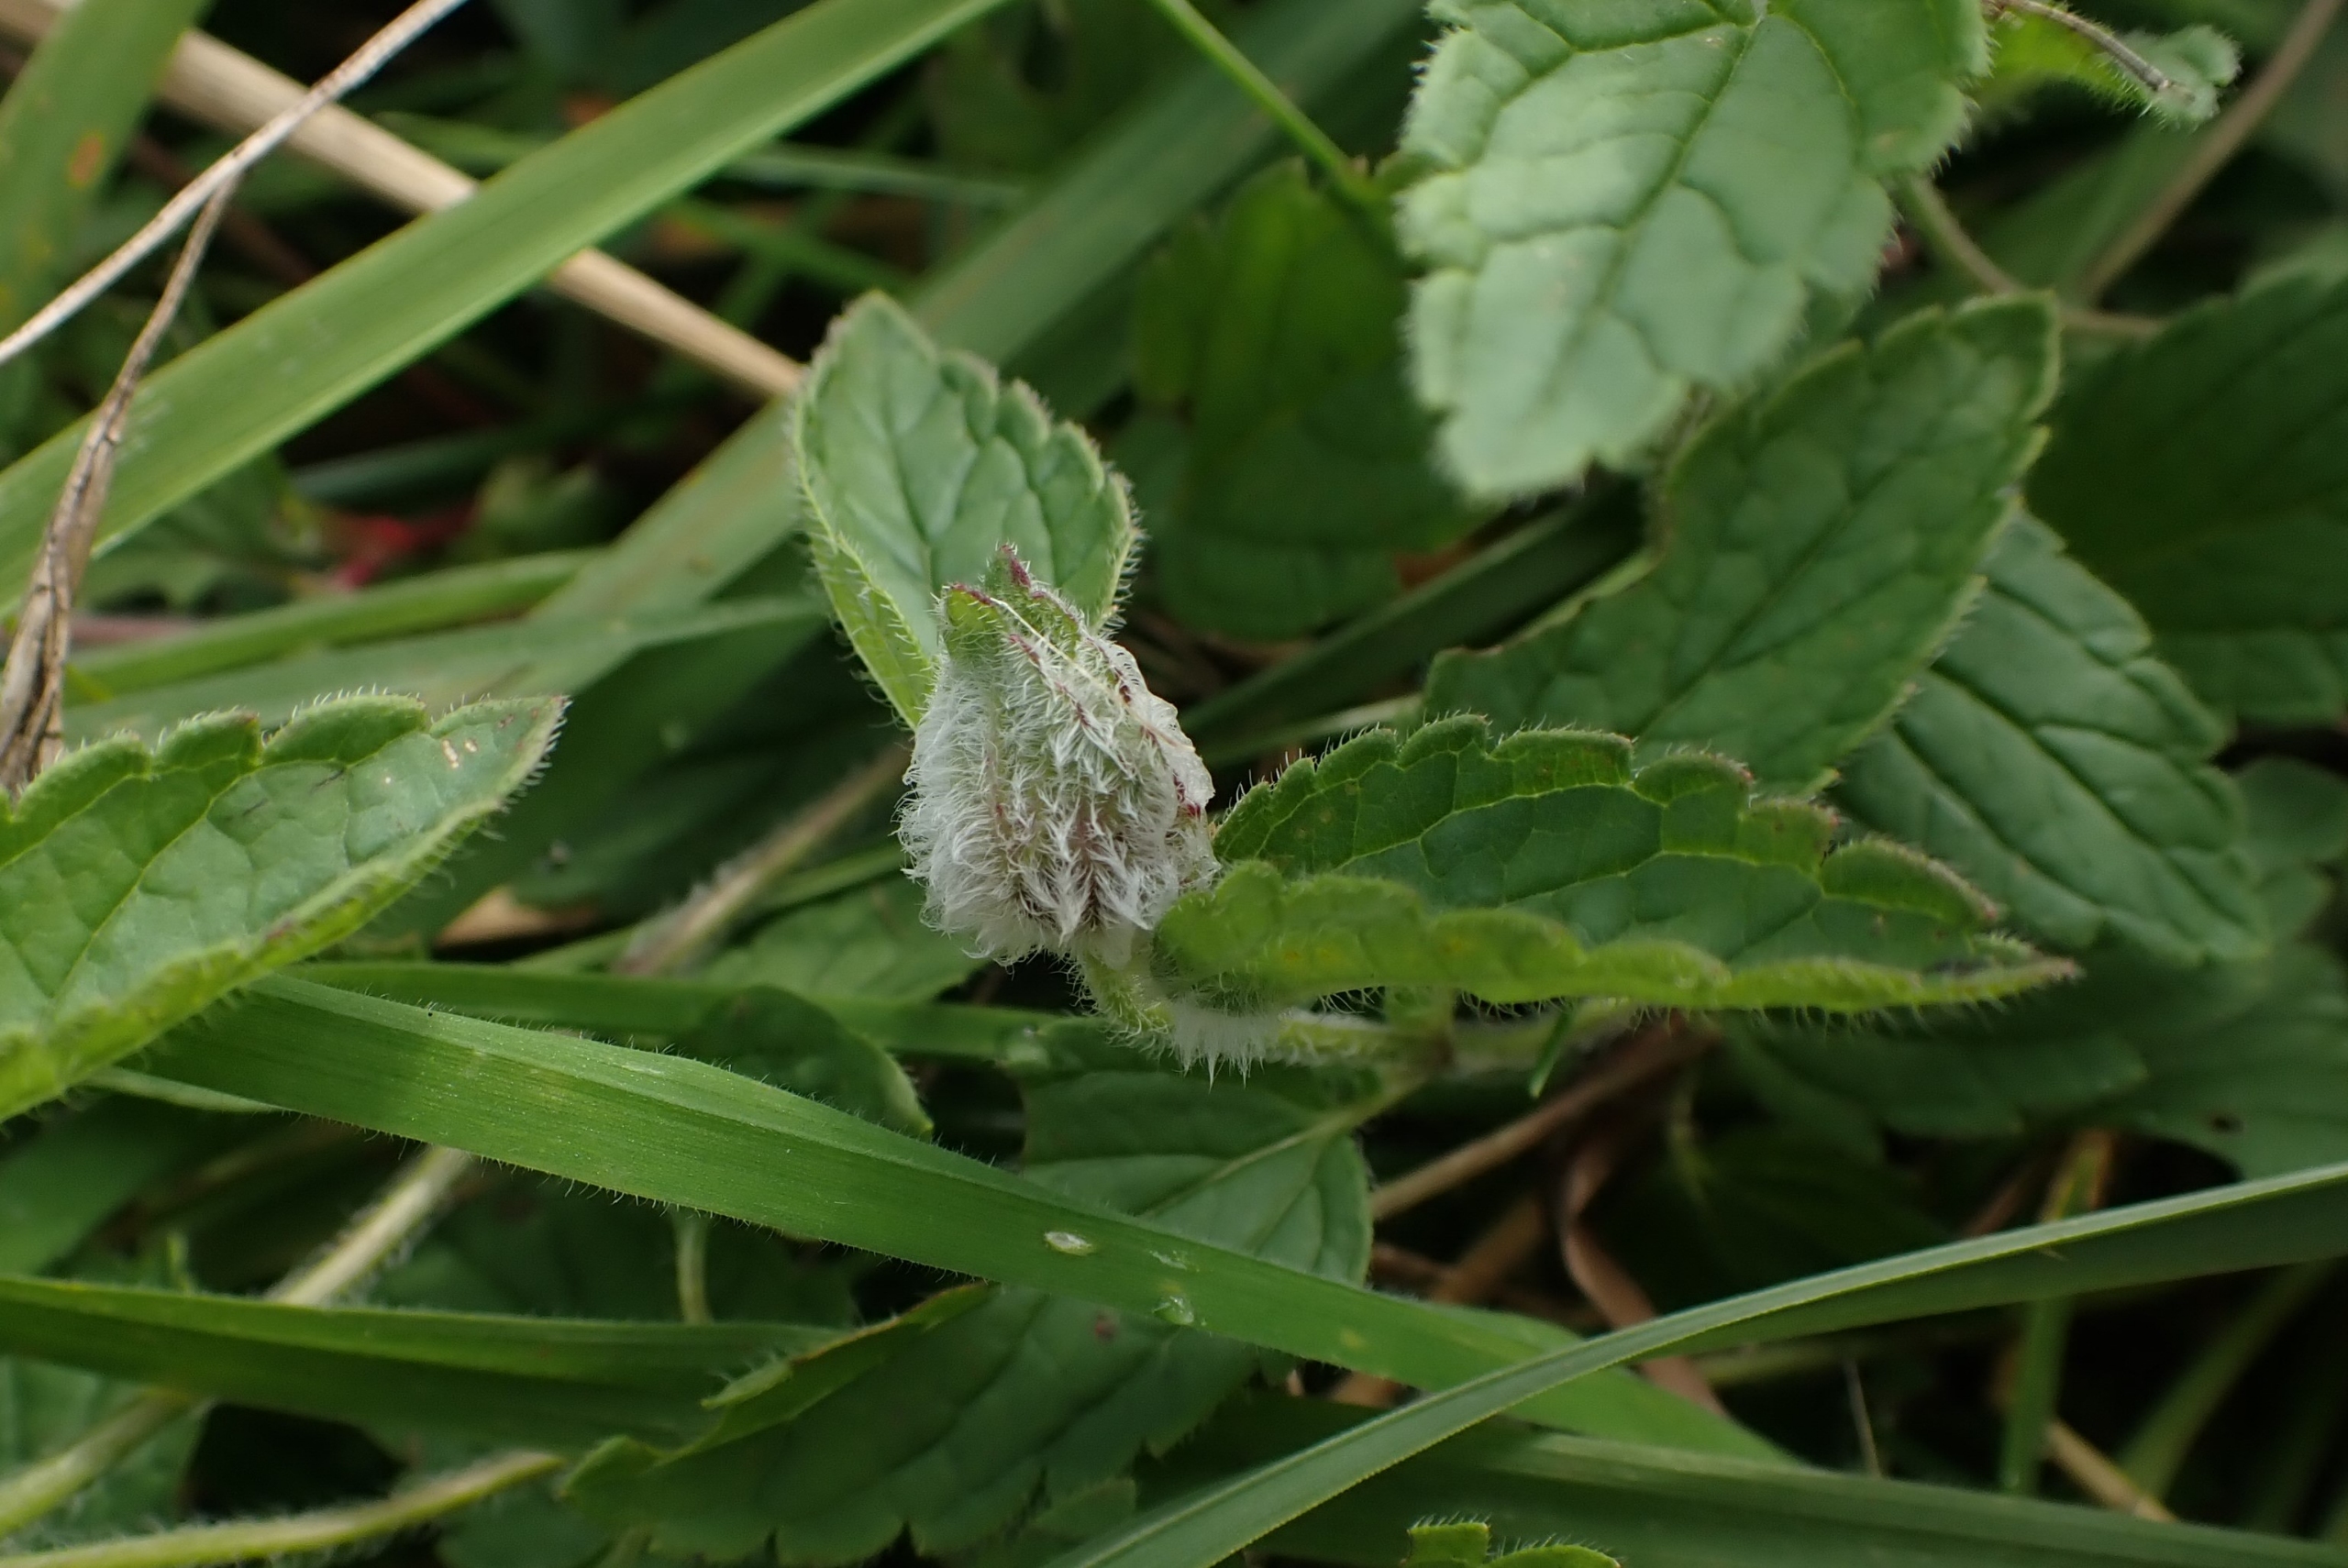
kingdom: Animalia
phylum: Arthropoda
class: Insecta
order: Diptera
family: Cecidomyiidae
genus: Jaapiella
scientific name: Jaapiella veronicae
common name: Ærenprisgalmyg
